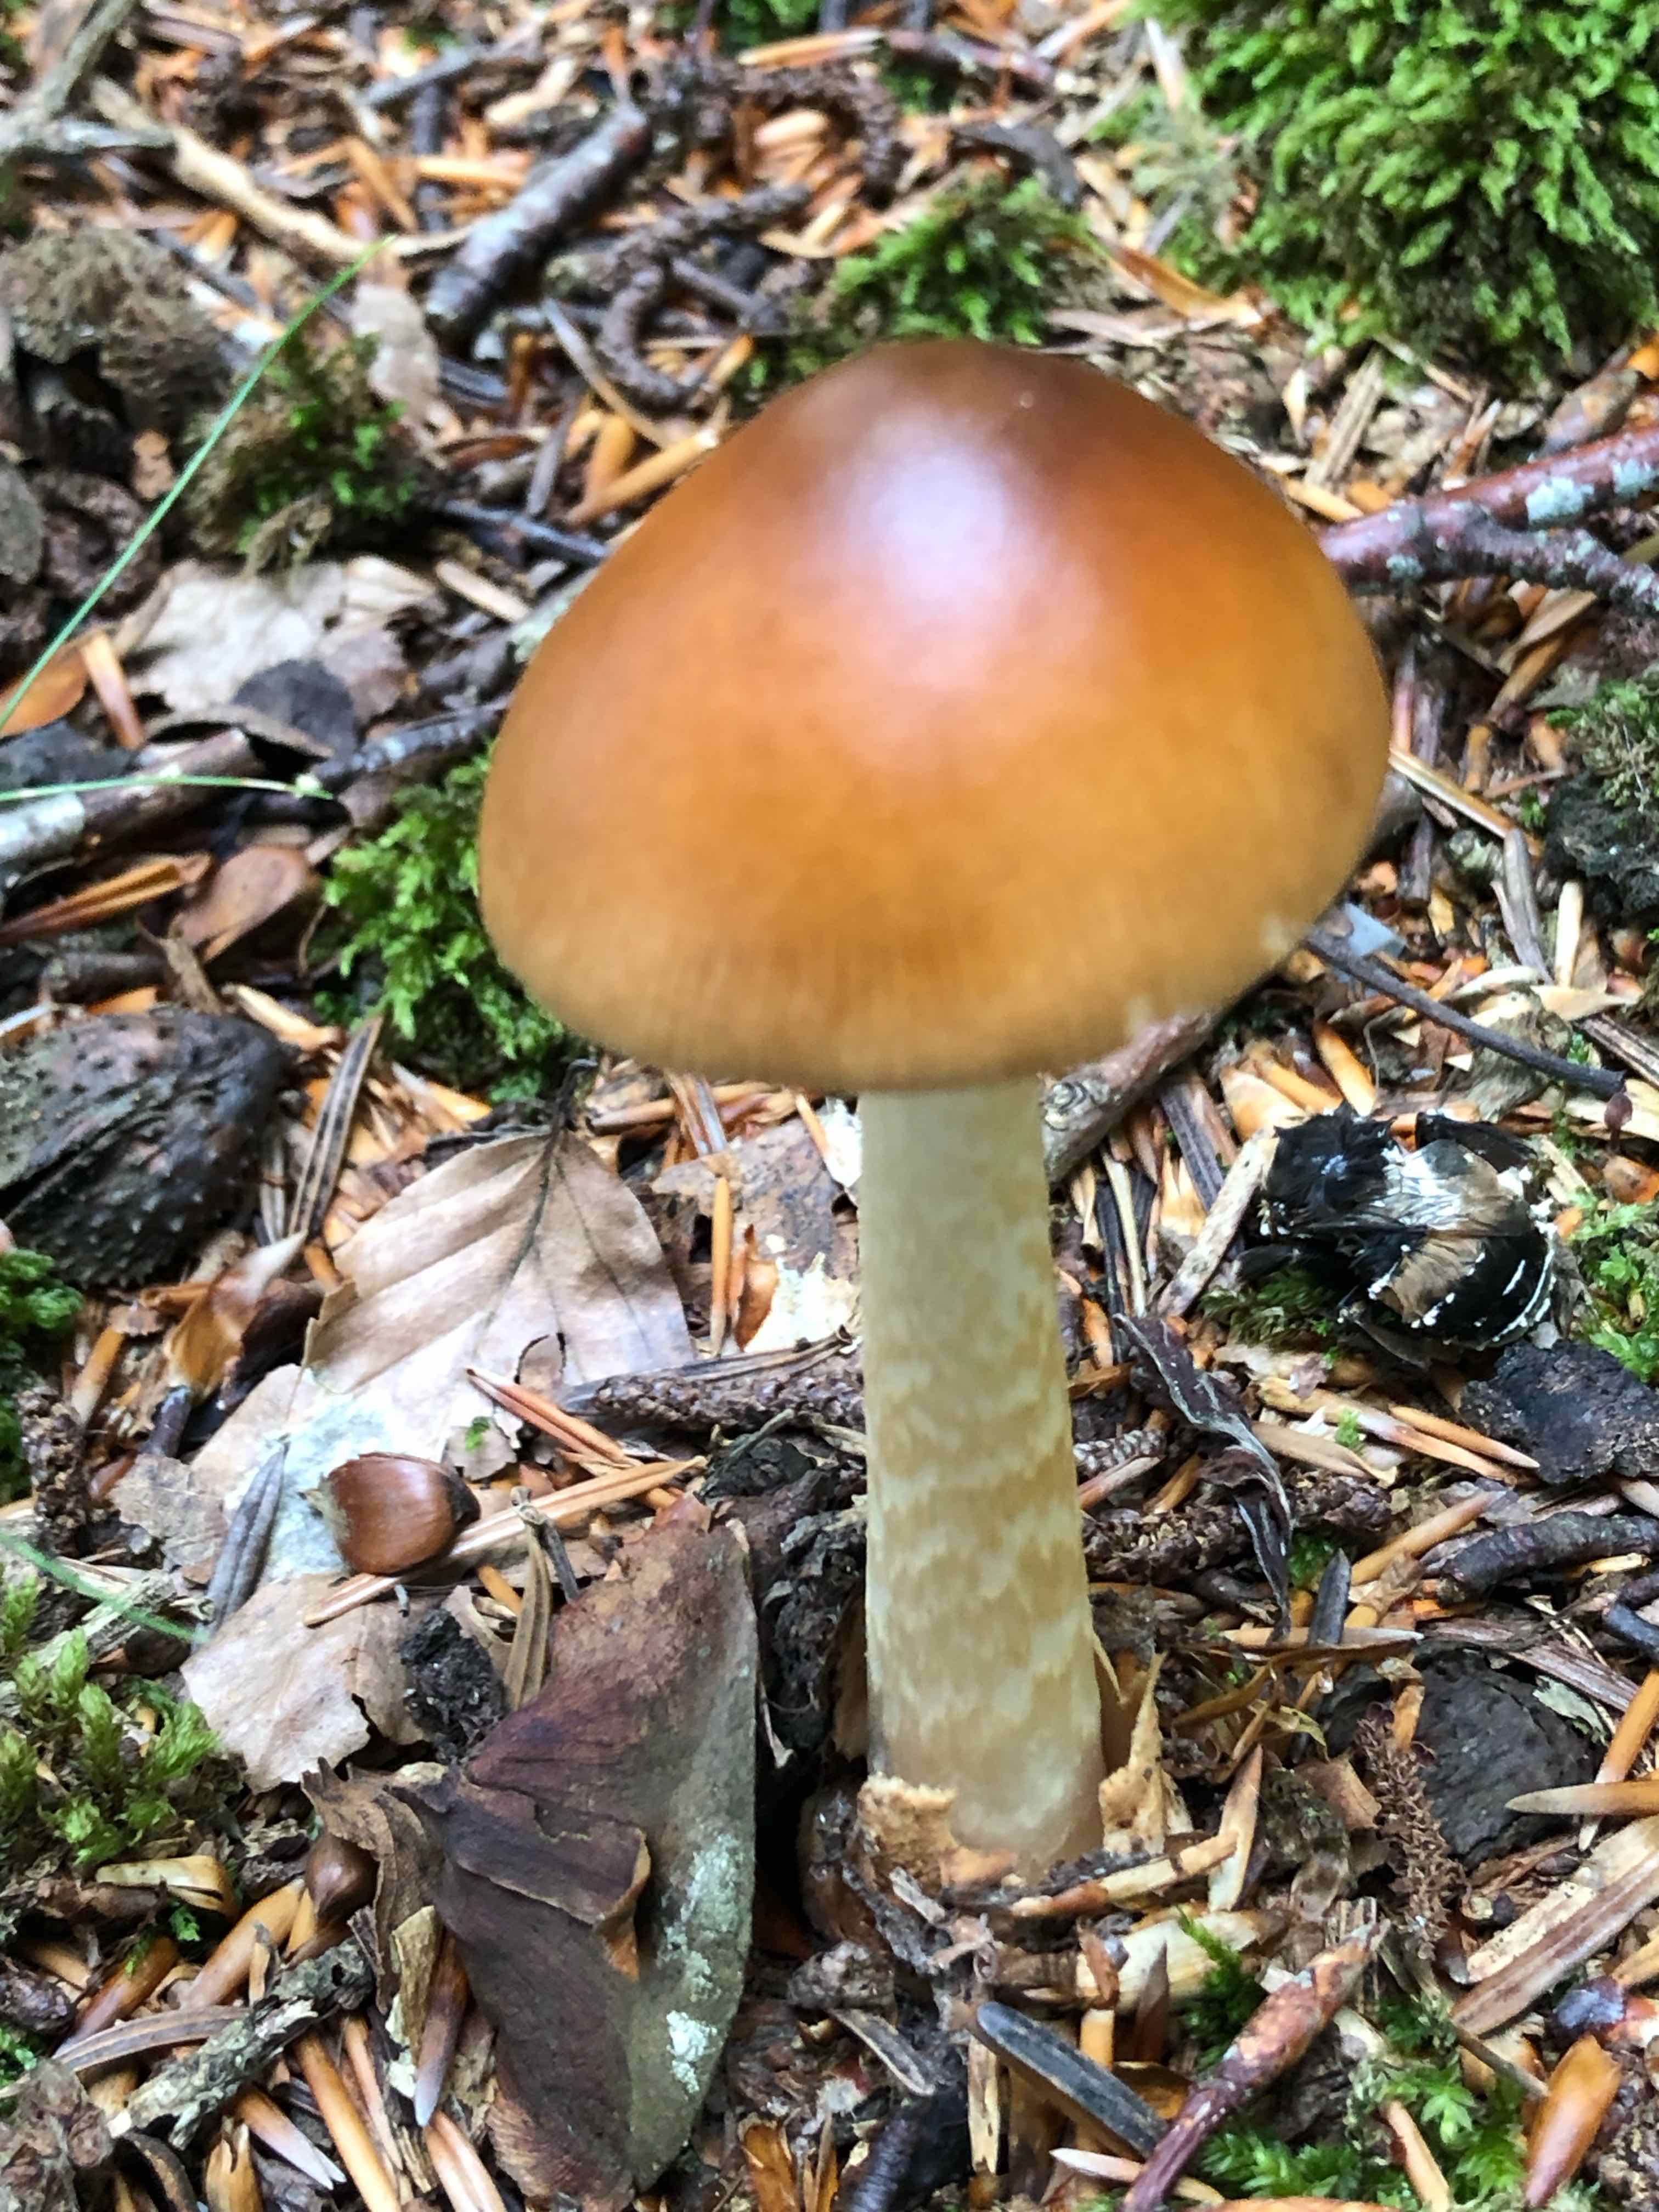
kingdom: Fungi
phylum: Basidiomycota
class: Agaricomycetes
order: Agaricales
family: Amanitaceae
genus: Amanita
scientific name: Amanita fulva
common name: brun kam-fluesvamp
